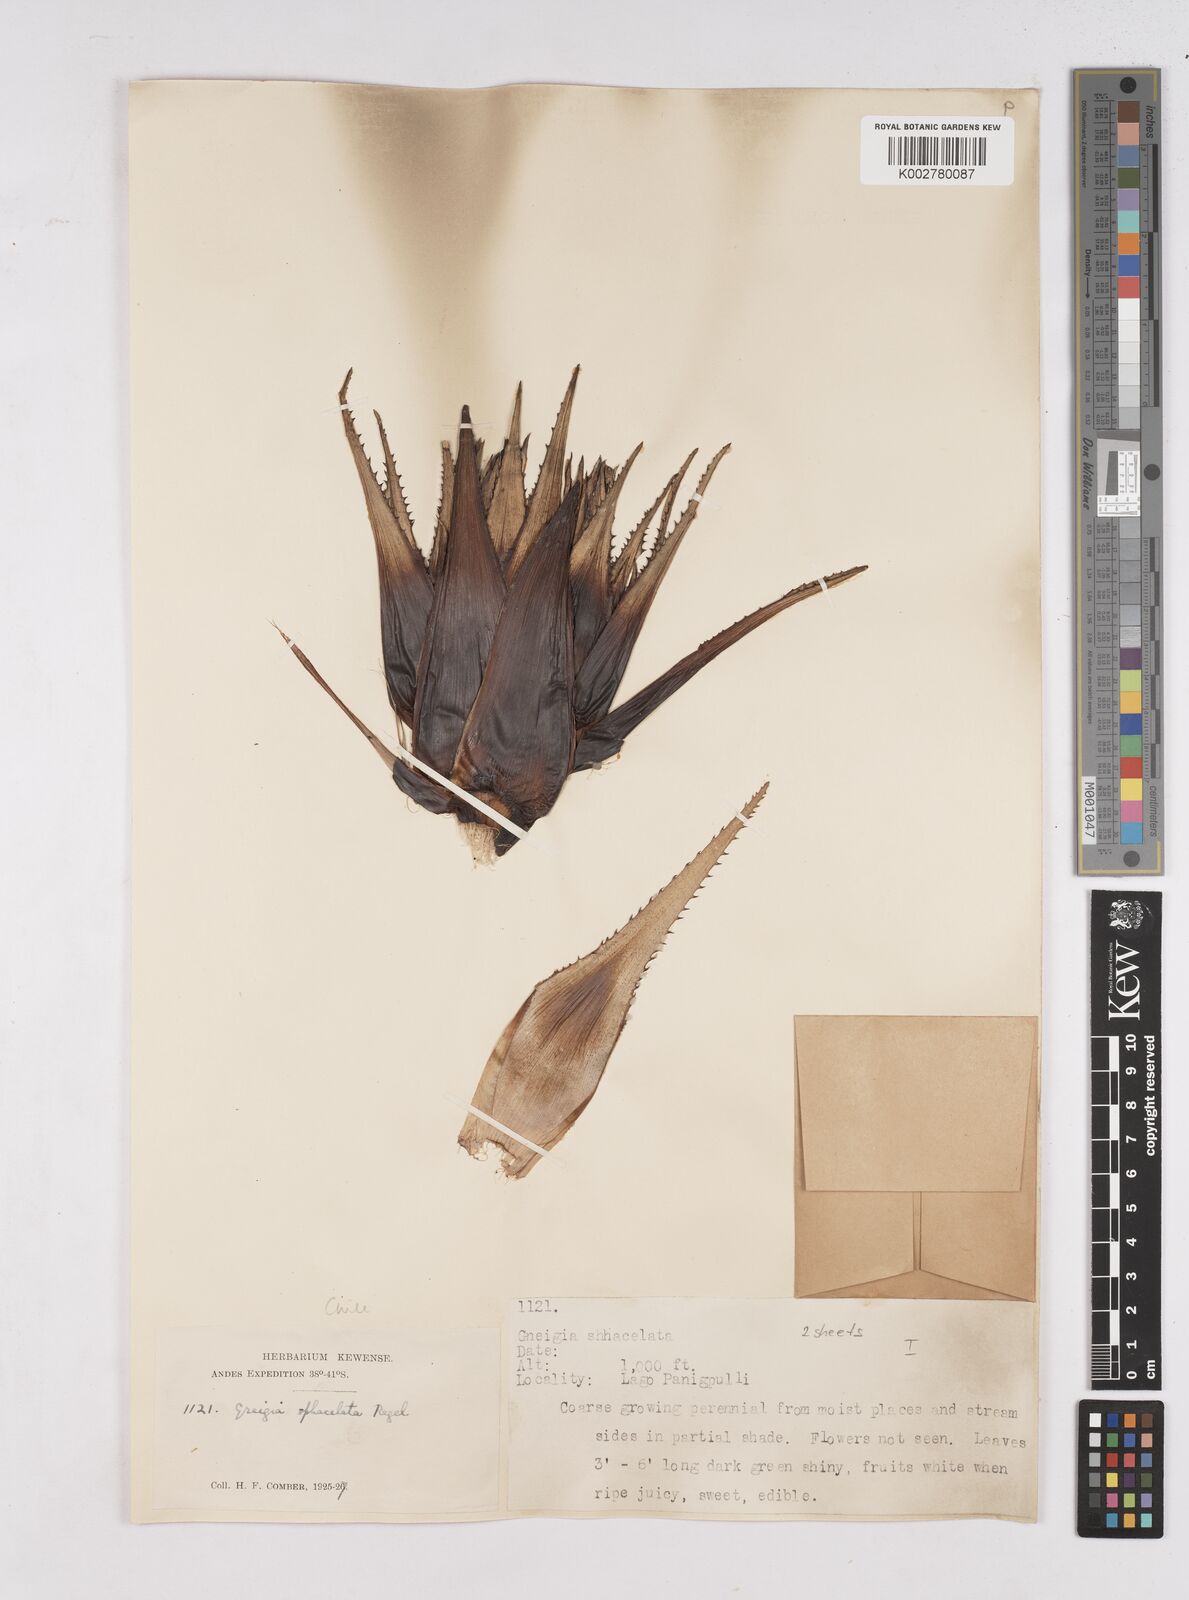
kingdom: Plantae
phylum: Tracheophyta
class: Liliopsida
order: Poales
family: Bromeliaceae
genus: Greigia
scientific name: Greigia sphacelata
